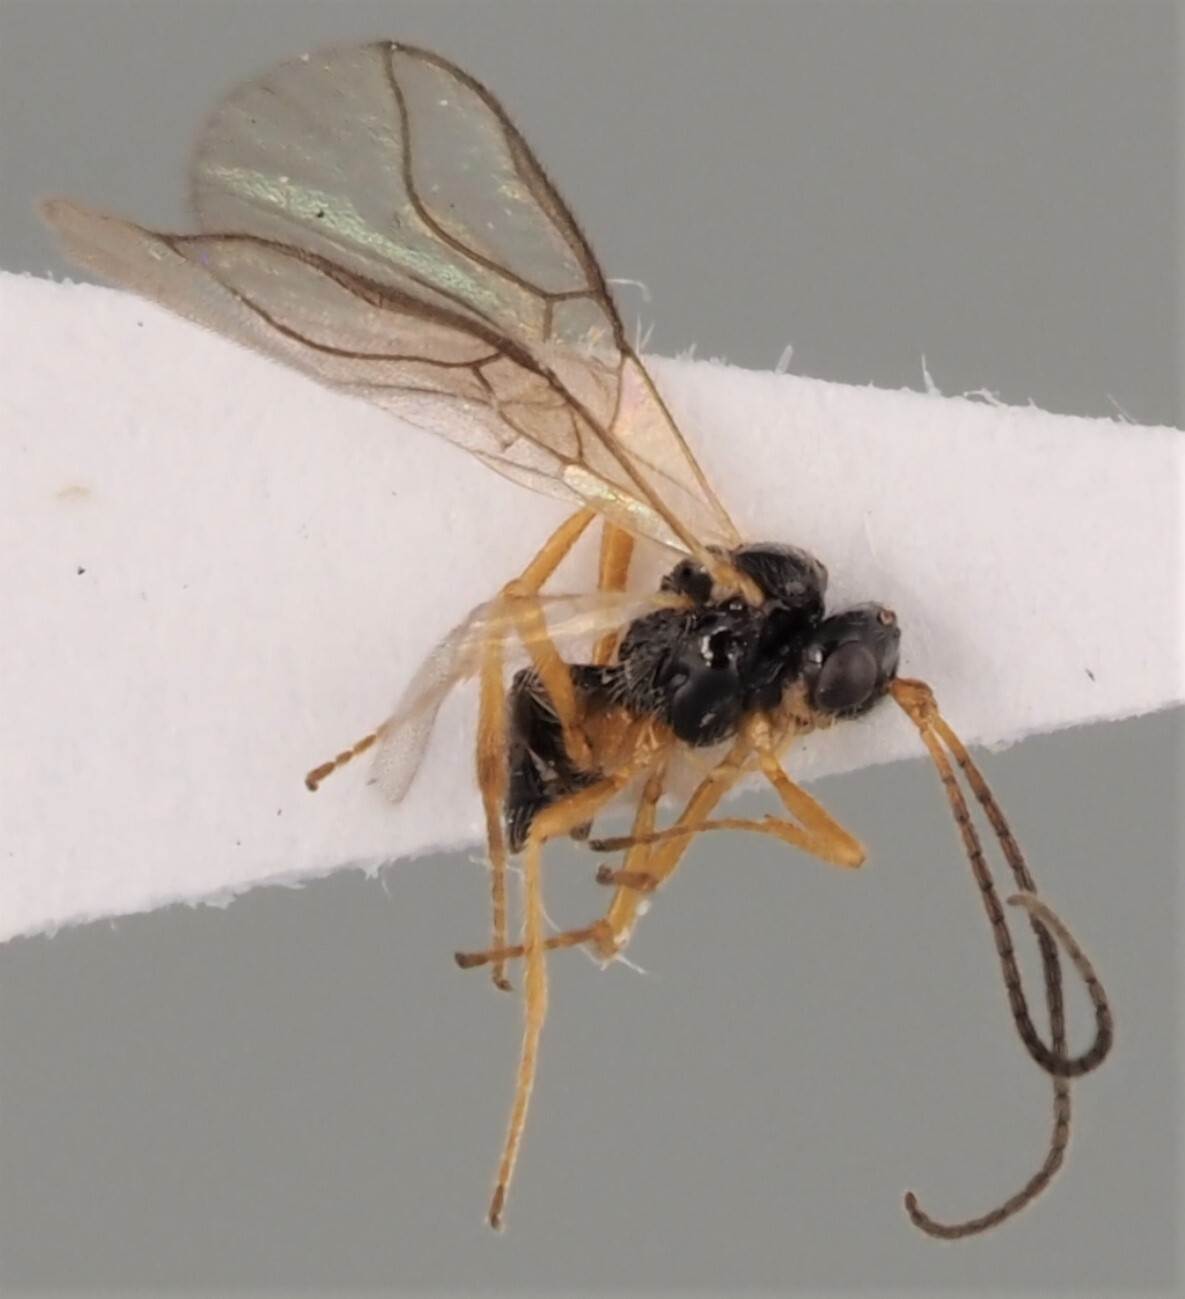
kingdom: Animalia
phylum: Arthropoda
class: Insecta
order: Hymenoptera
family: Braconidae
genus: Exotela
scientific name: Exotela sonchina
